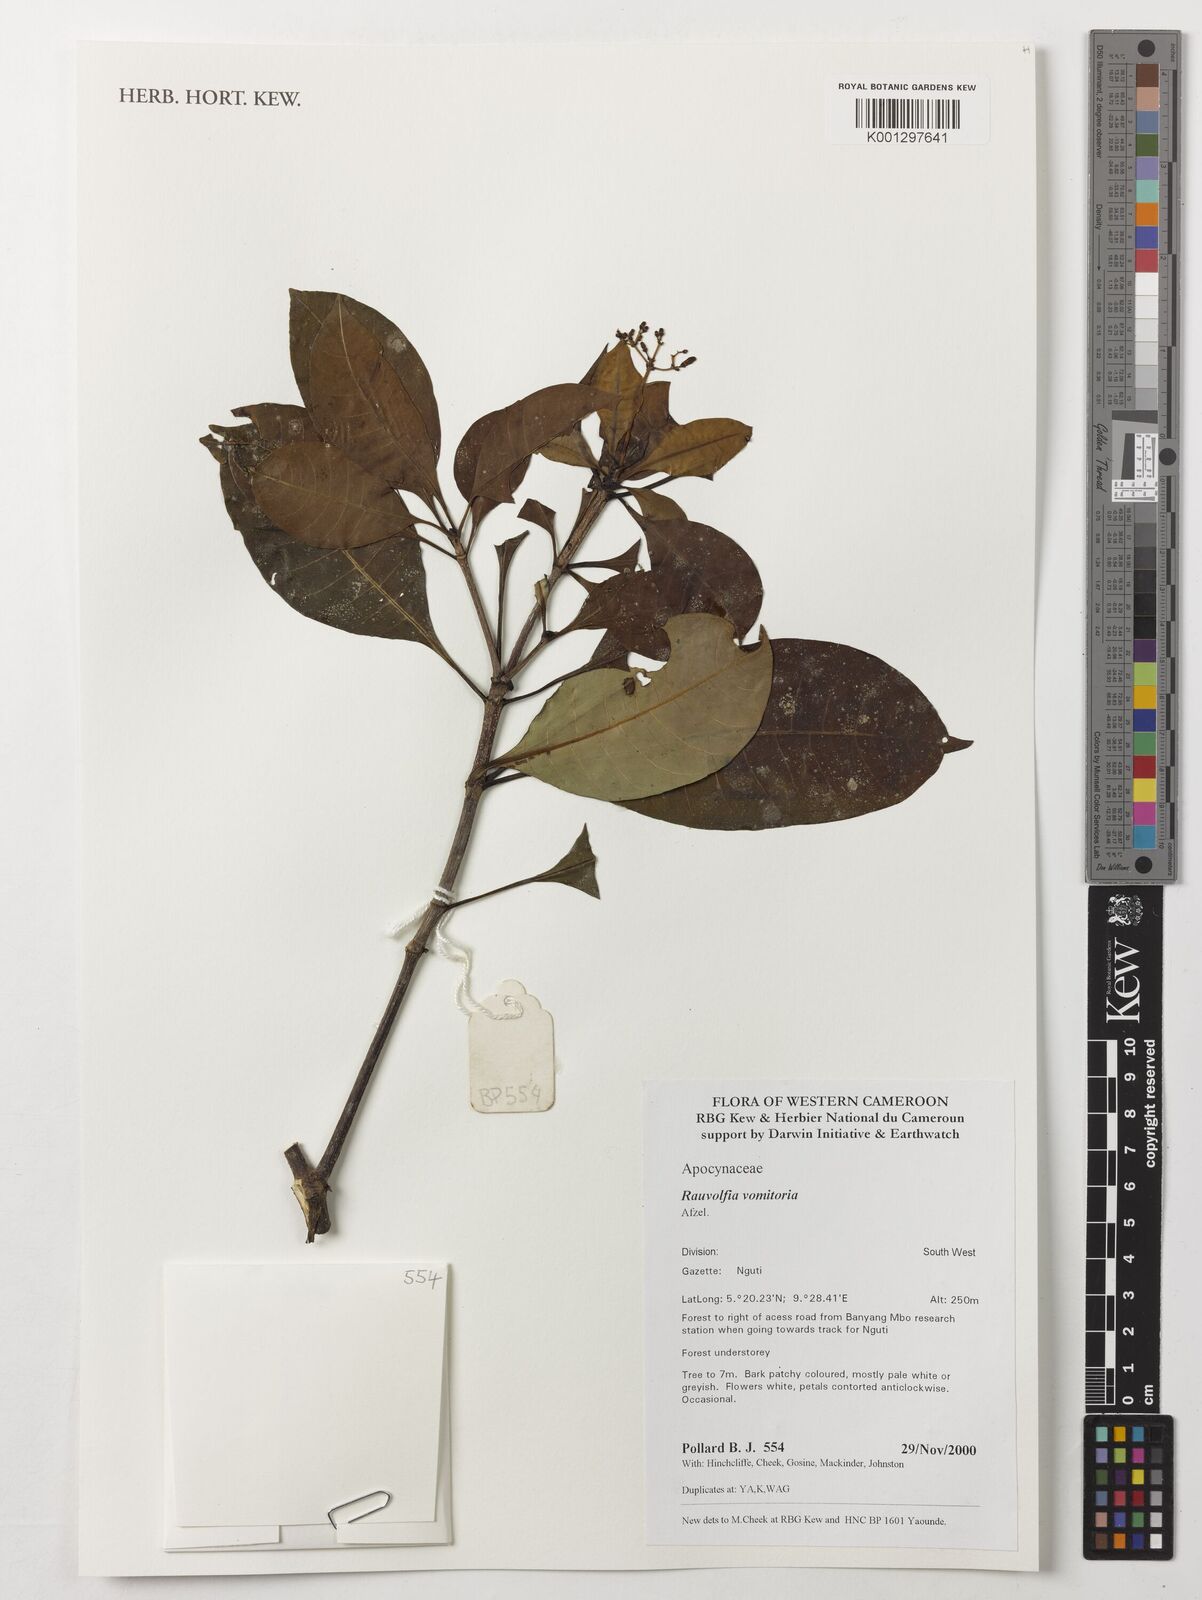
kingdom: Plantae
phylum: Tracheophyta
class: Magnoliopsida
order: Gentianales
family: Apocynaceae
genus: Rauvolfia
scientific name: Rauvolfia vomitoria
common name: Poison devil's-pepper
